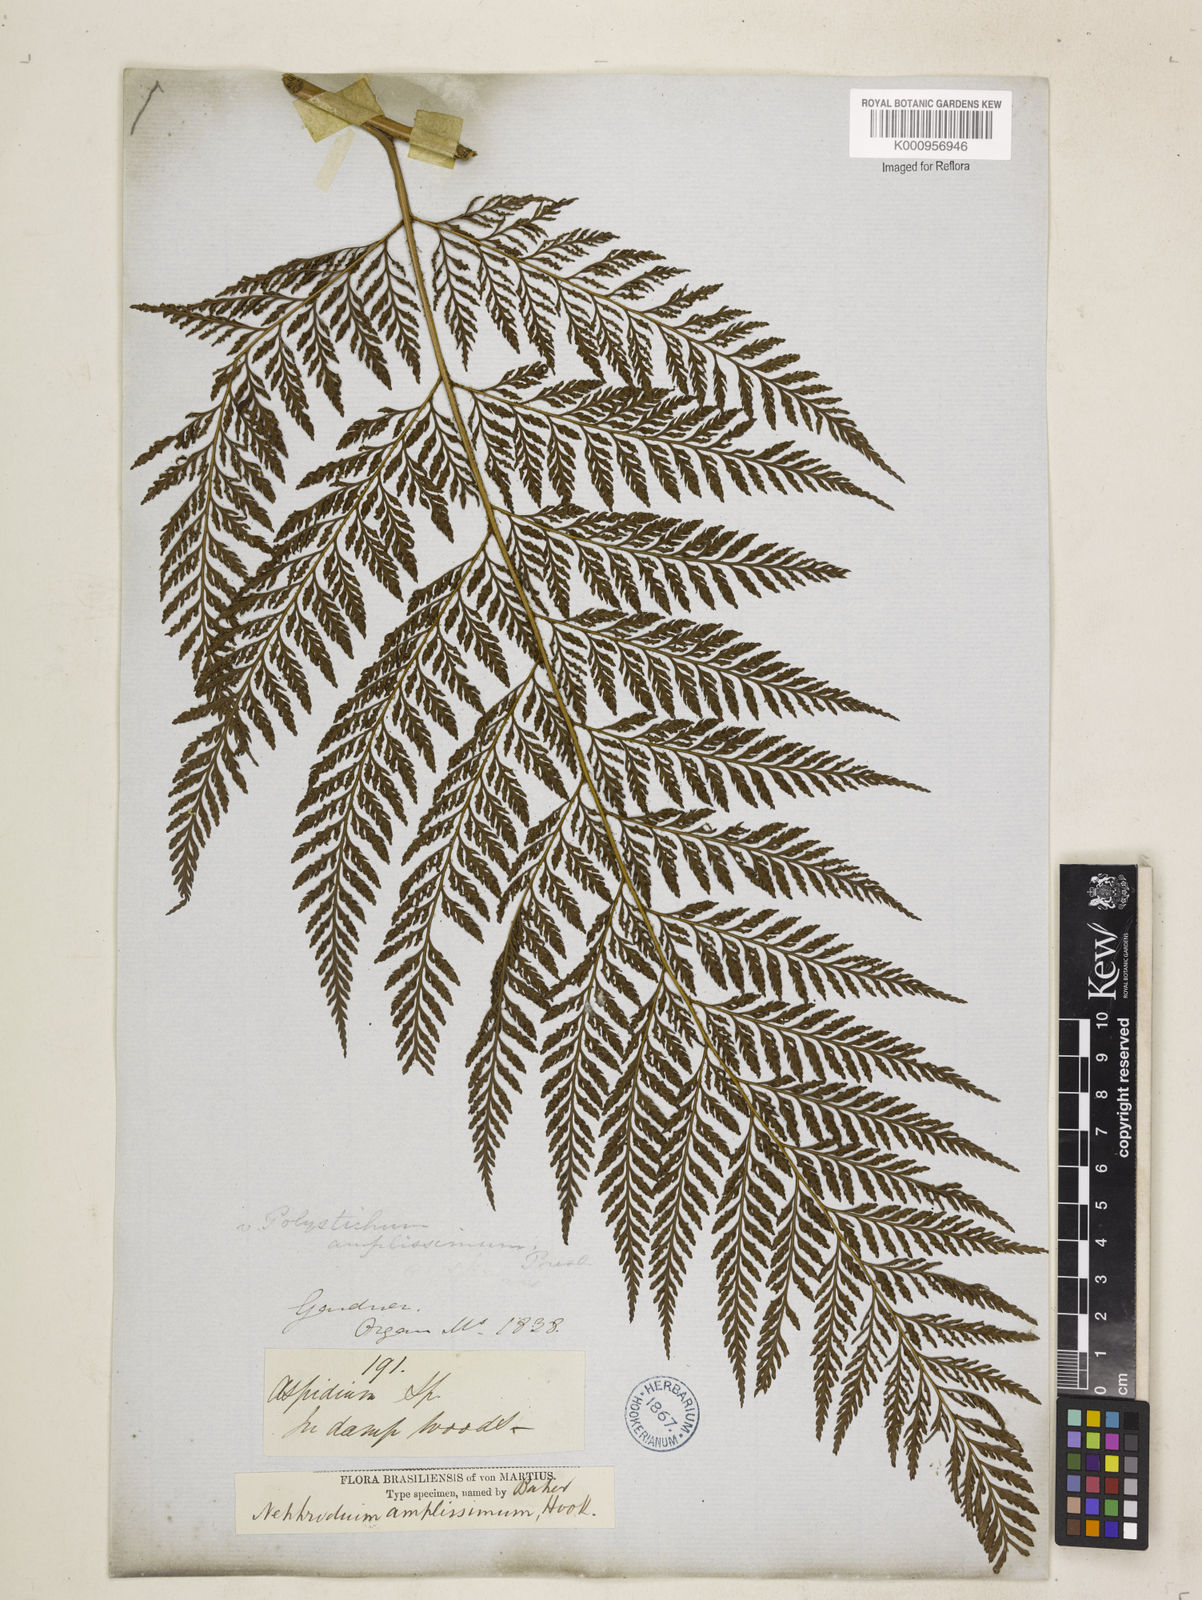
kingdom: Plantae
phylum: Tracheophyta
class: Polypodiopsida
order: Polypodiales
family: Dryopteridaceae
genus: Lastreopsis
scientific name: Lastreopsis amplissima
